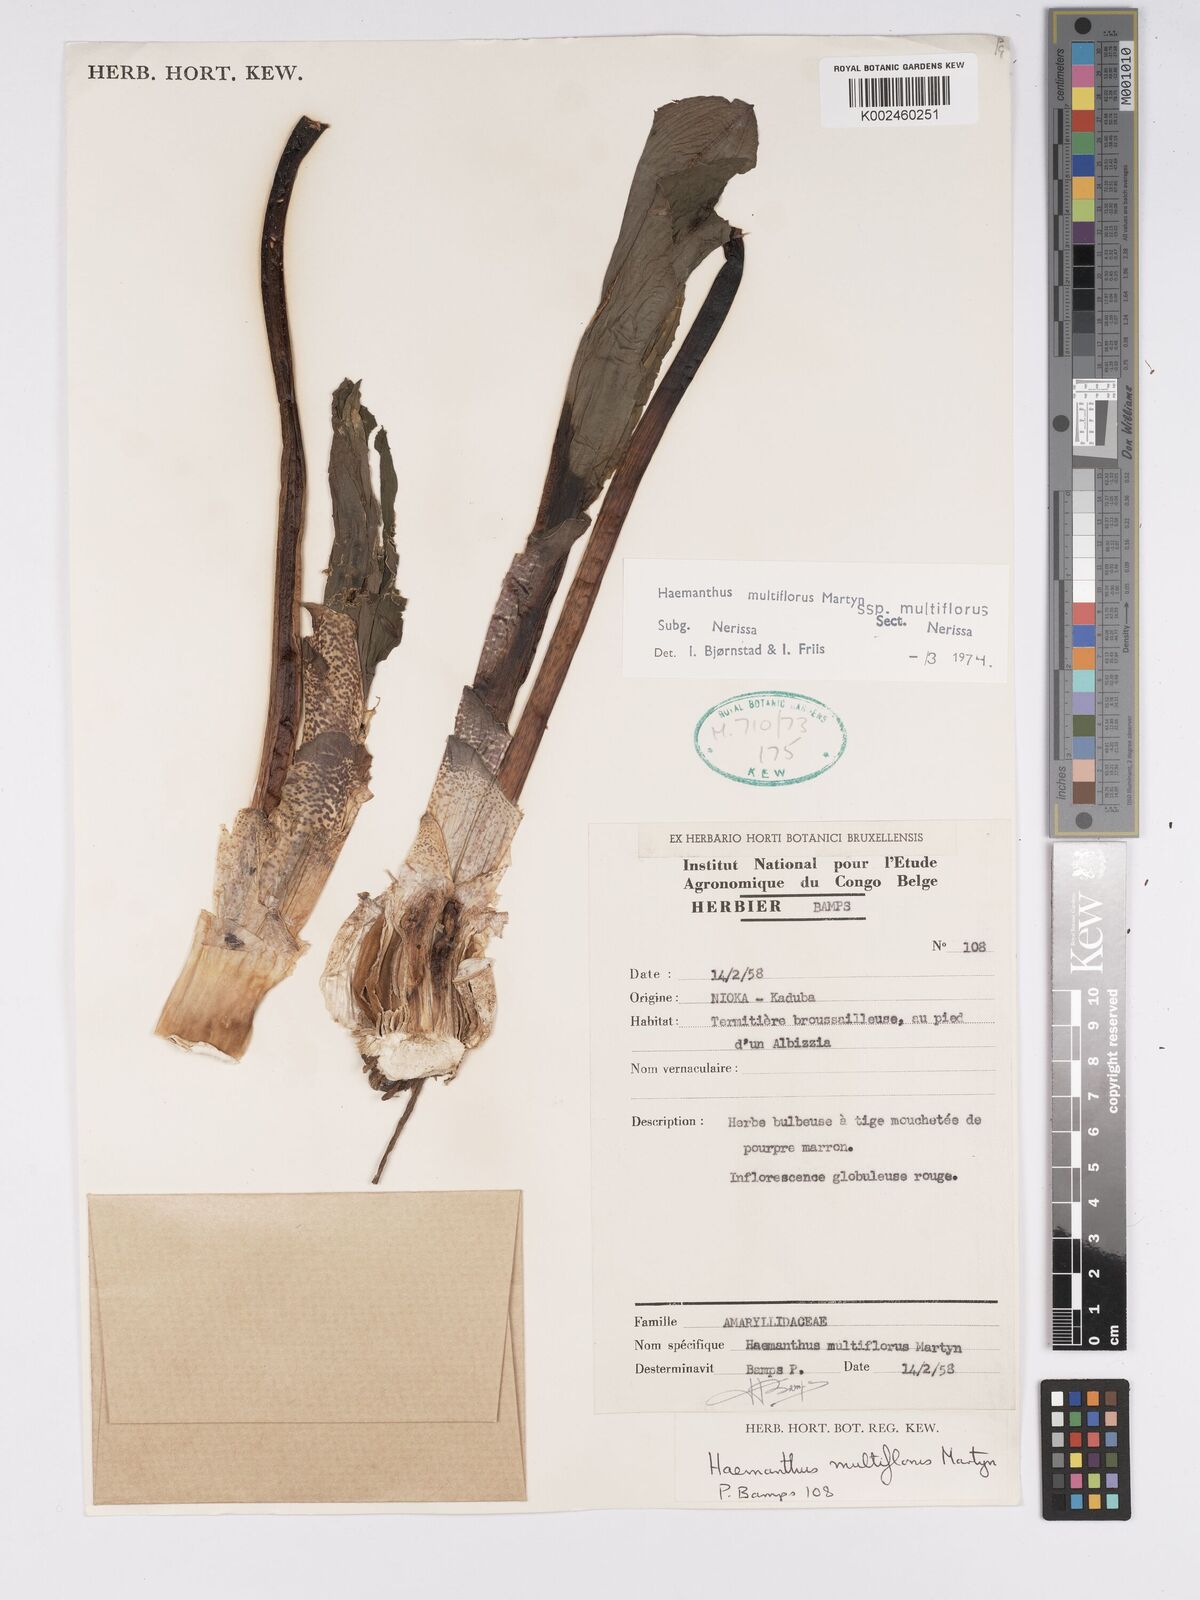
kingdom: Plantae
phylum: Tracheophyta
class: Liliopsida
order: Asparagales
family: Amaryllidaceae
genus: Scadoxus
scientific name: Scadoxus multiflorus
